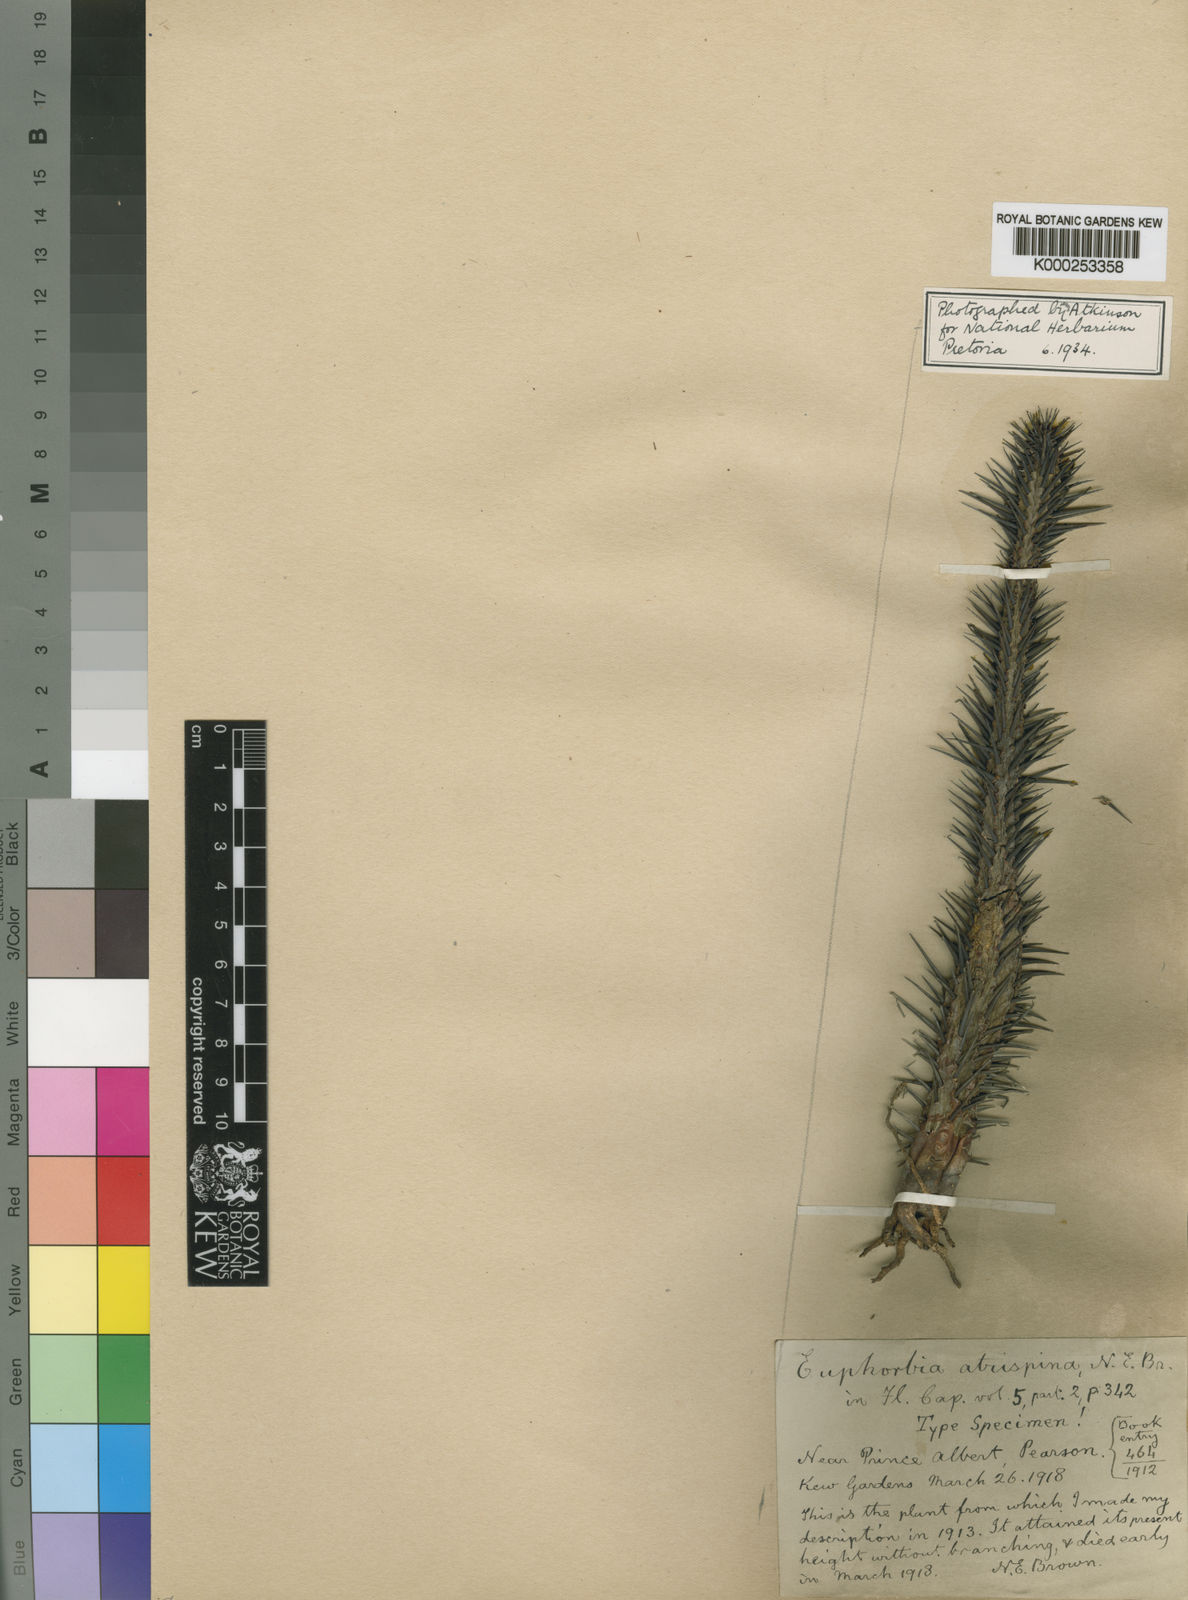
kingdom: Plantae
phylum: Tracheophyta
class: Magnoliopsida
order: Malpighiales
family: Euphorbiaceae
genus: Euphorbia
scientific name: Euphorbia heptagona
